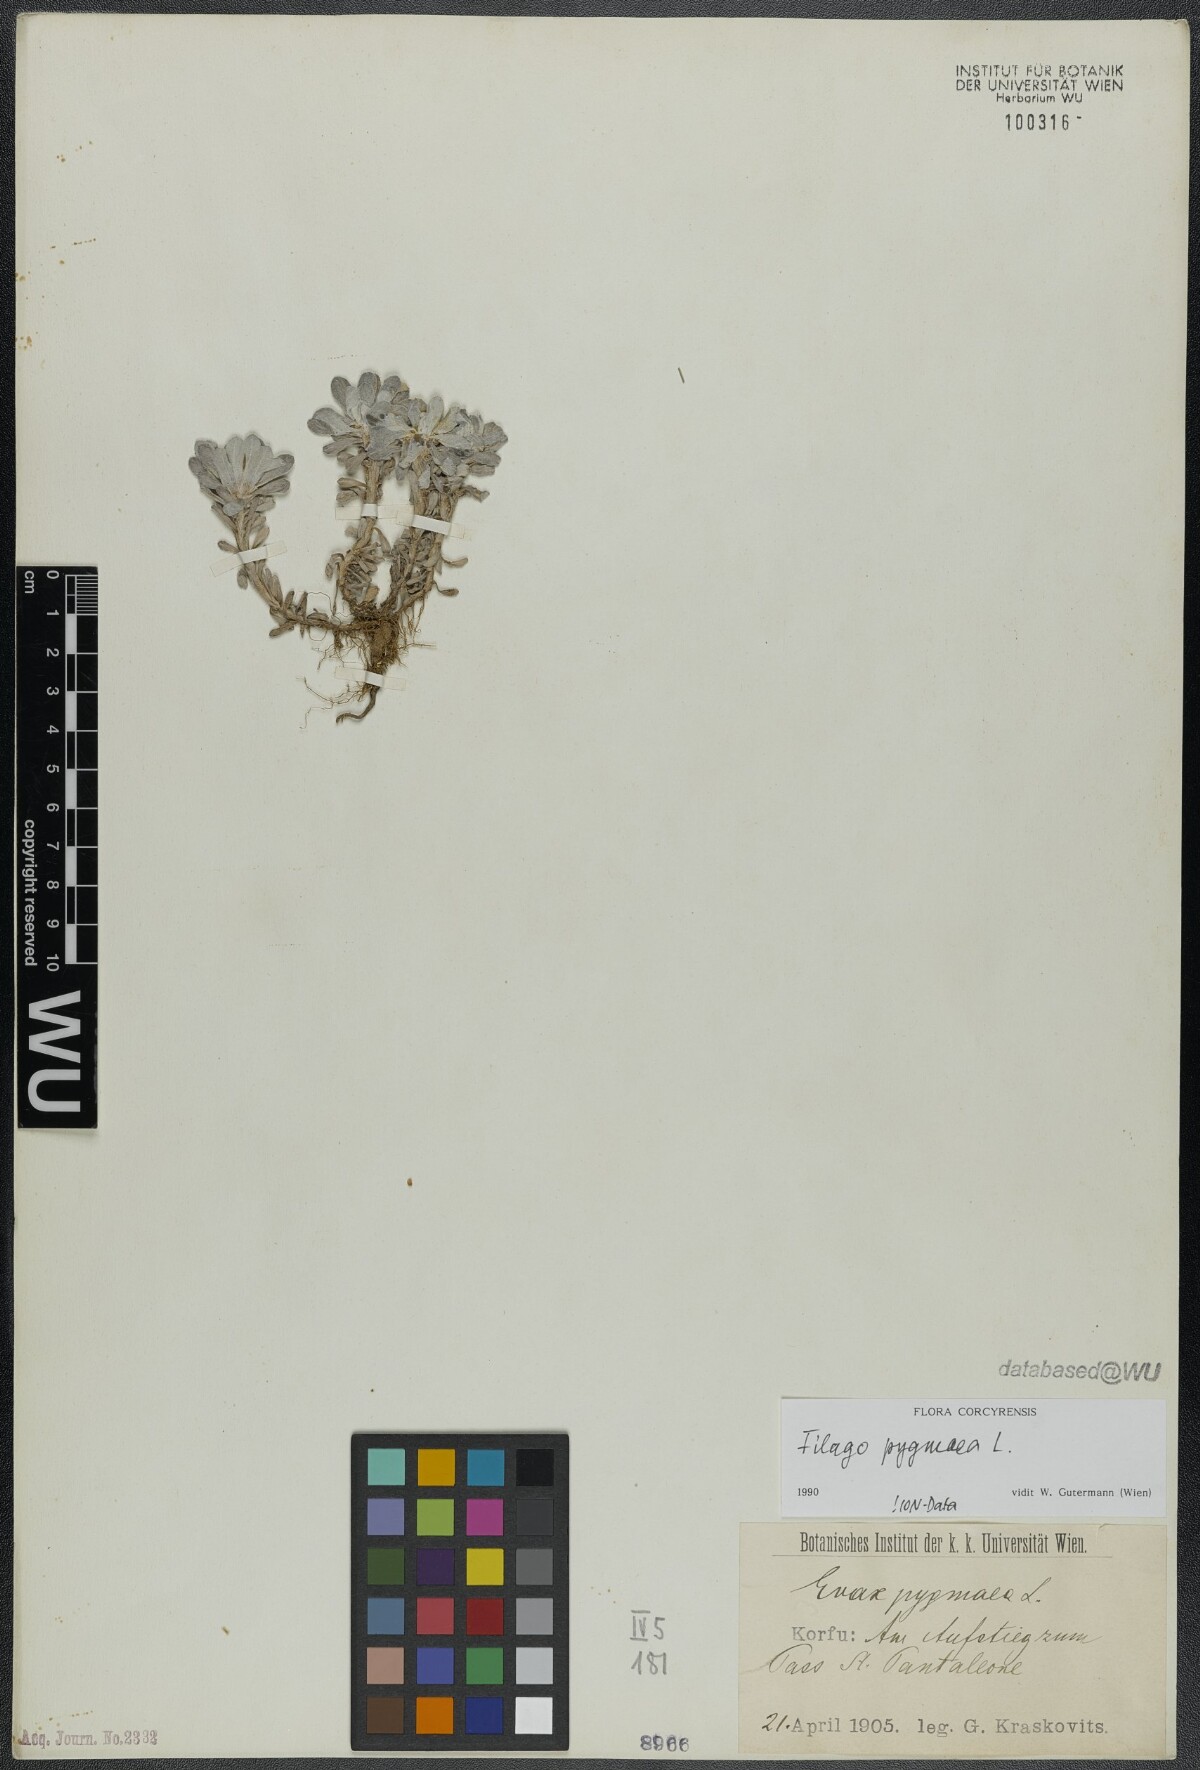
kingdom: Plantae
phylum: Tracheophyta
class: Magnoliopsida
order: Asterales
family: Asteraceae
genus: Filago
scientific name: Filago pygmaea
